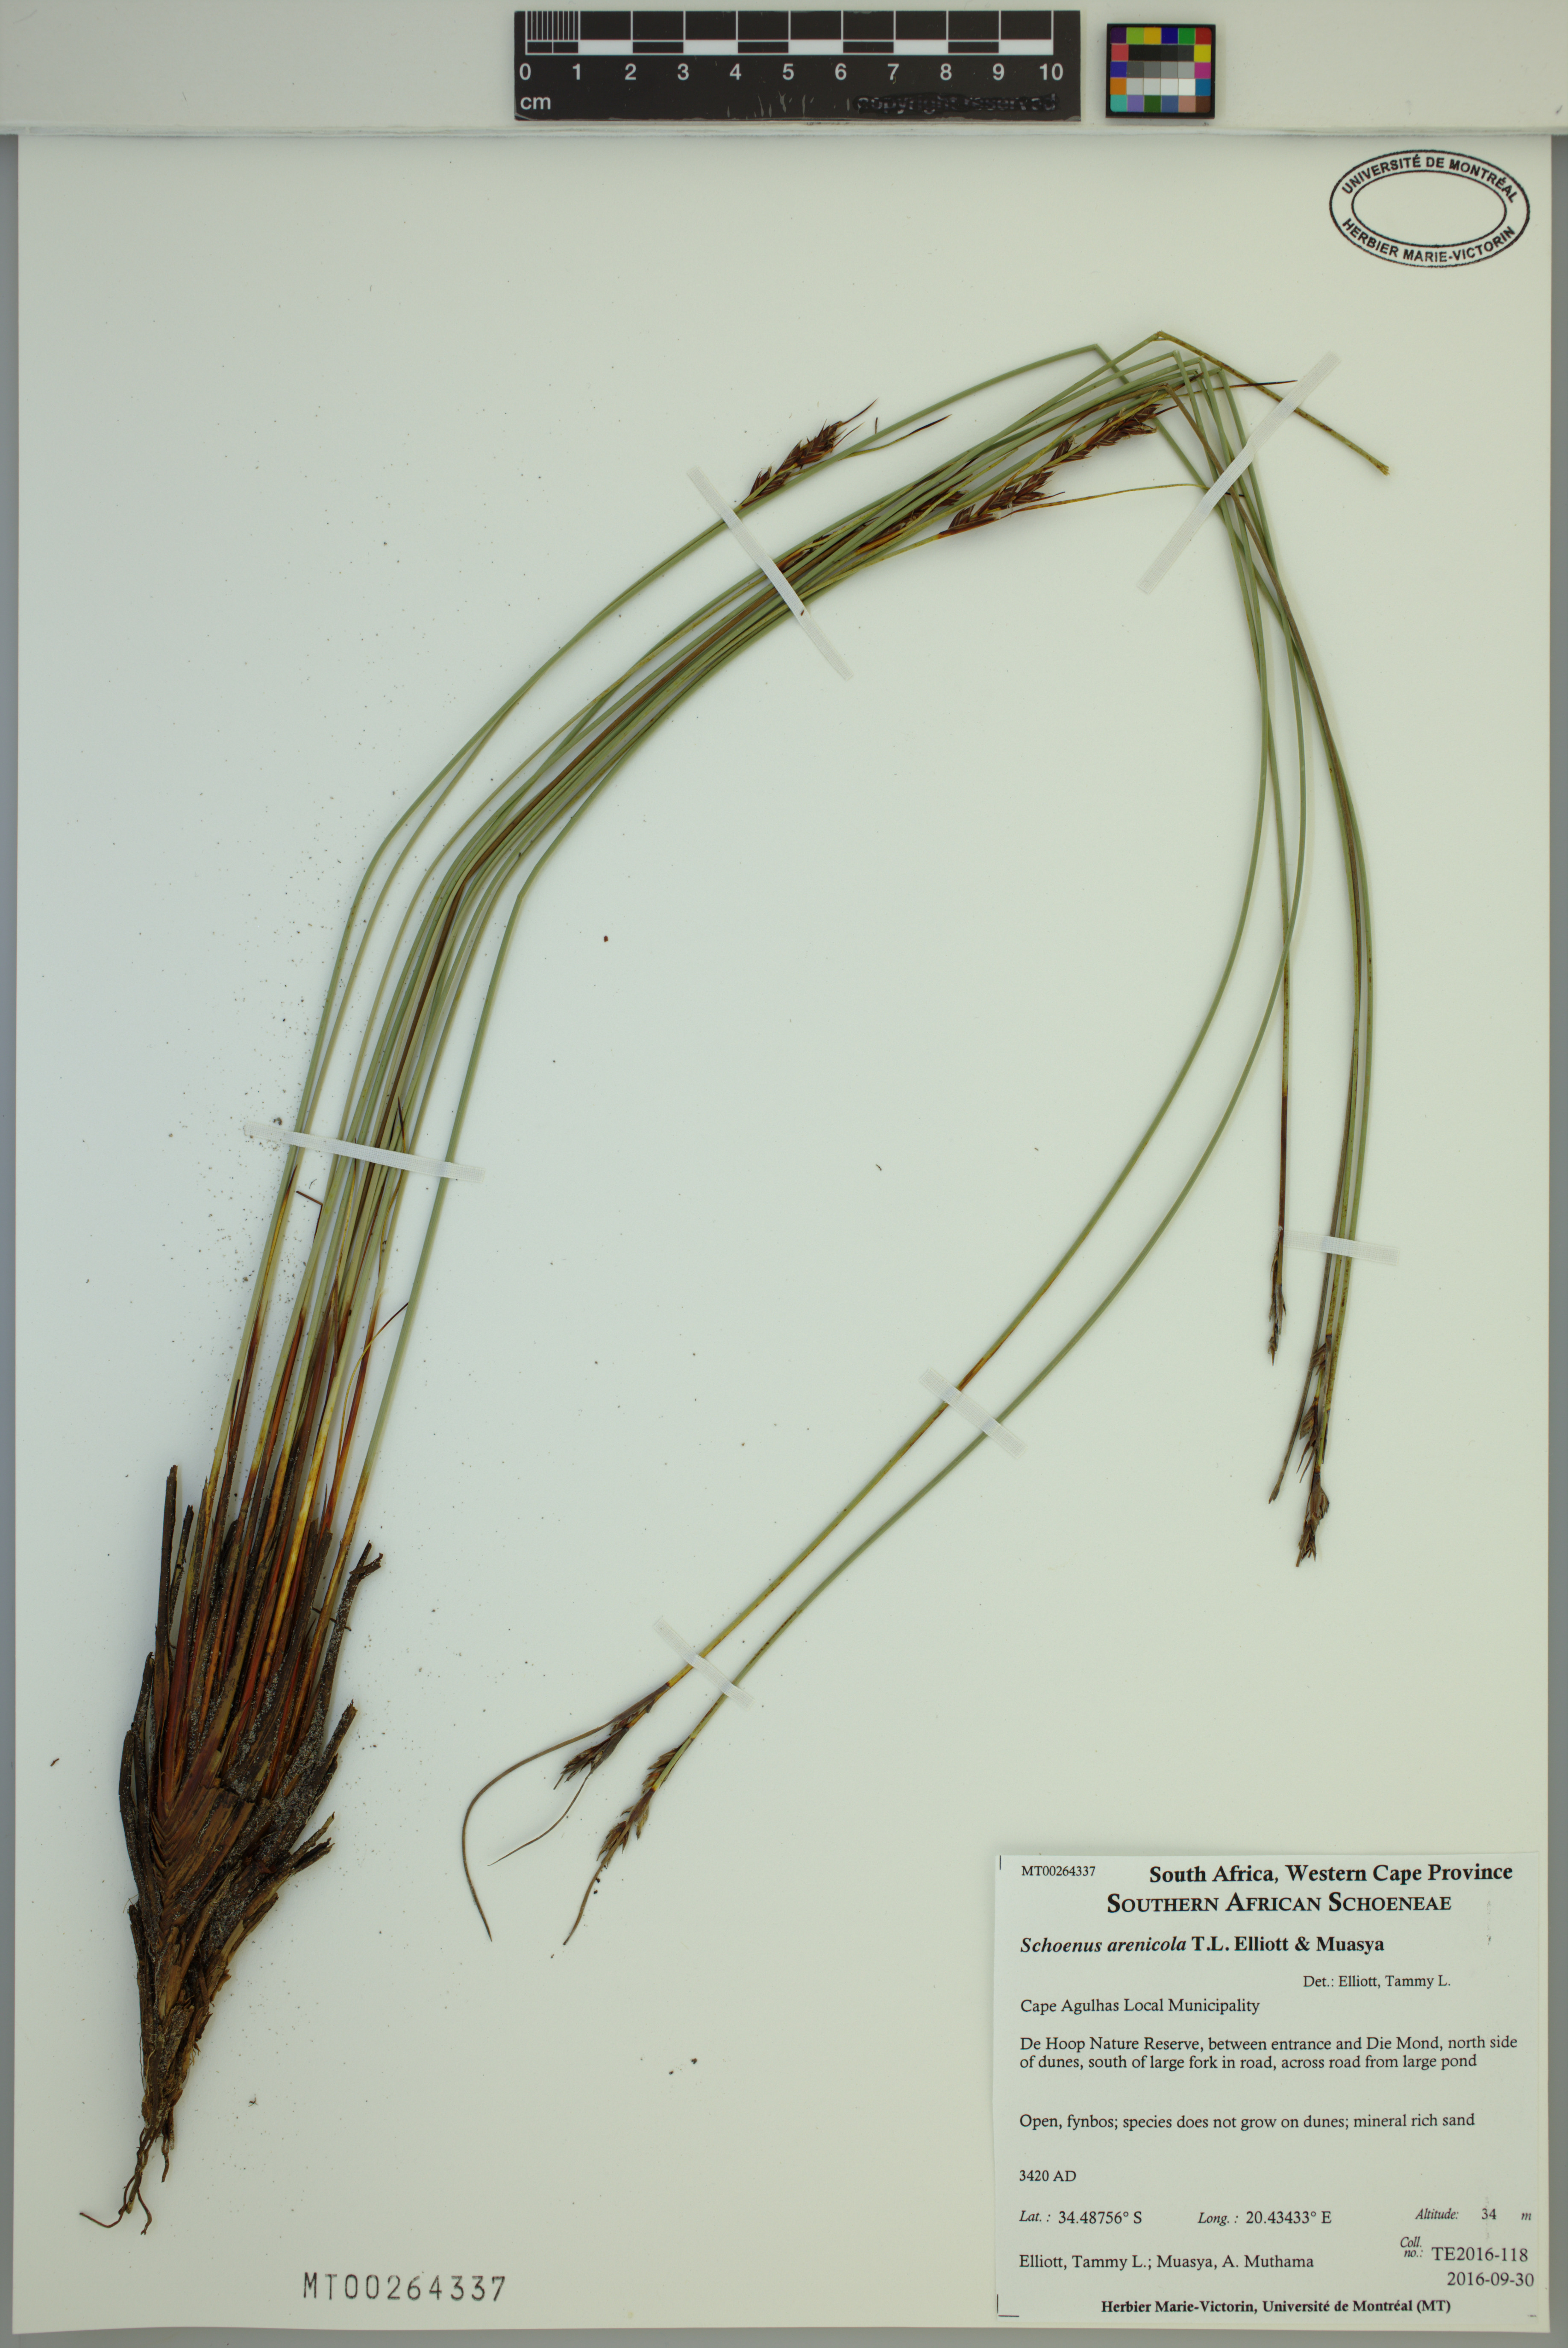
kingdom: Plantae
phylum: Tracheophyta
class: Liliopsida
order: Poales
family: Cyperaceae
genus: Schoenus
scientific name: Schoenus arenicola
